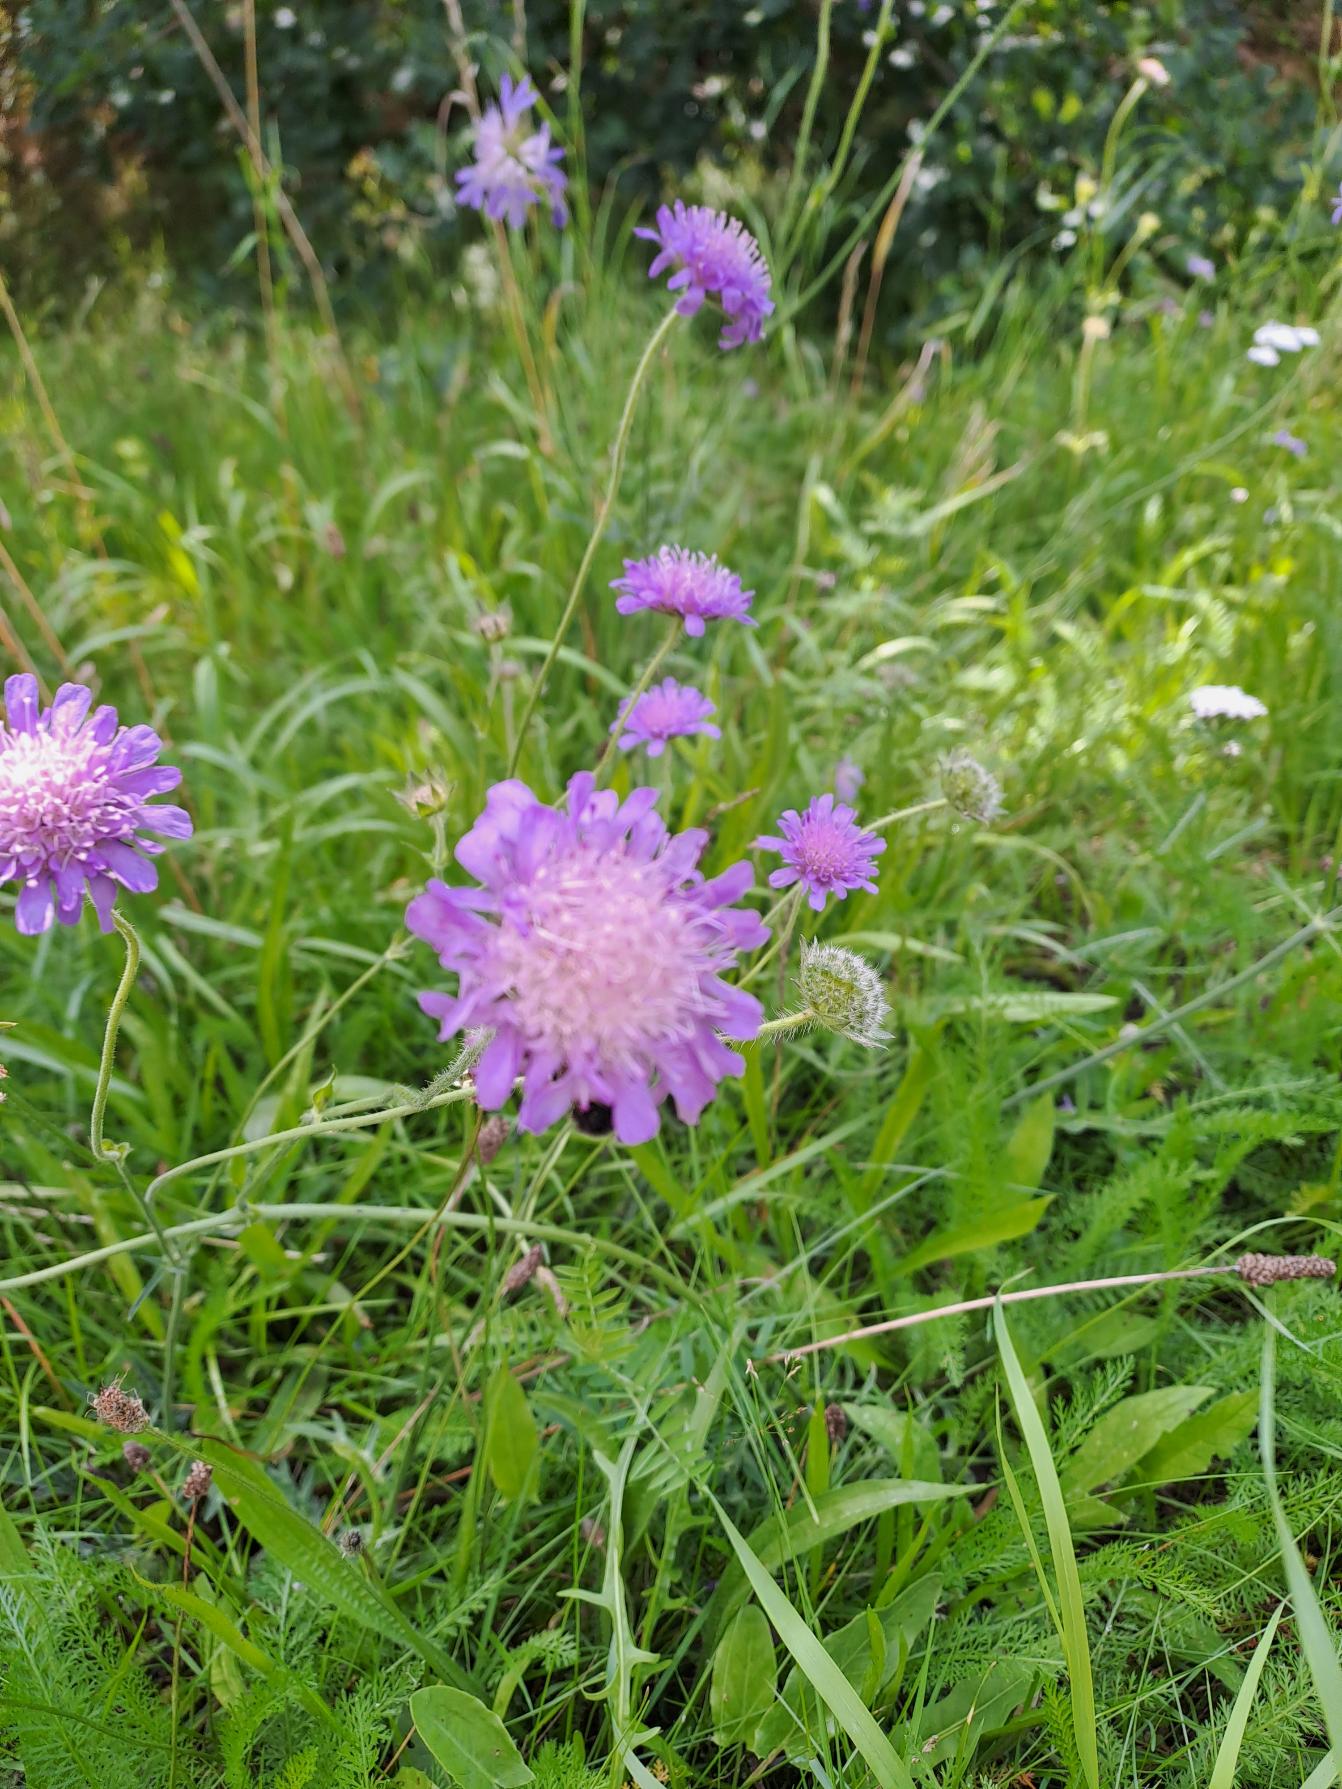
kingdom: Plantae
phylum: Tracheophyta
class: Magnoliopsida
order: Dipsacales
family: Caprifoliaceae
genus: Knautia
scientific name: Knautia arvensis
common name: Blåhat
